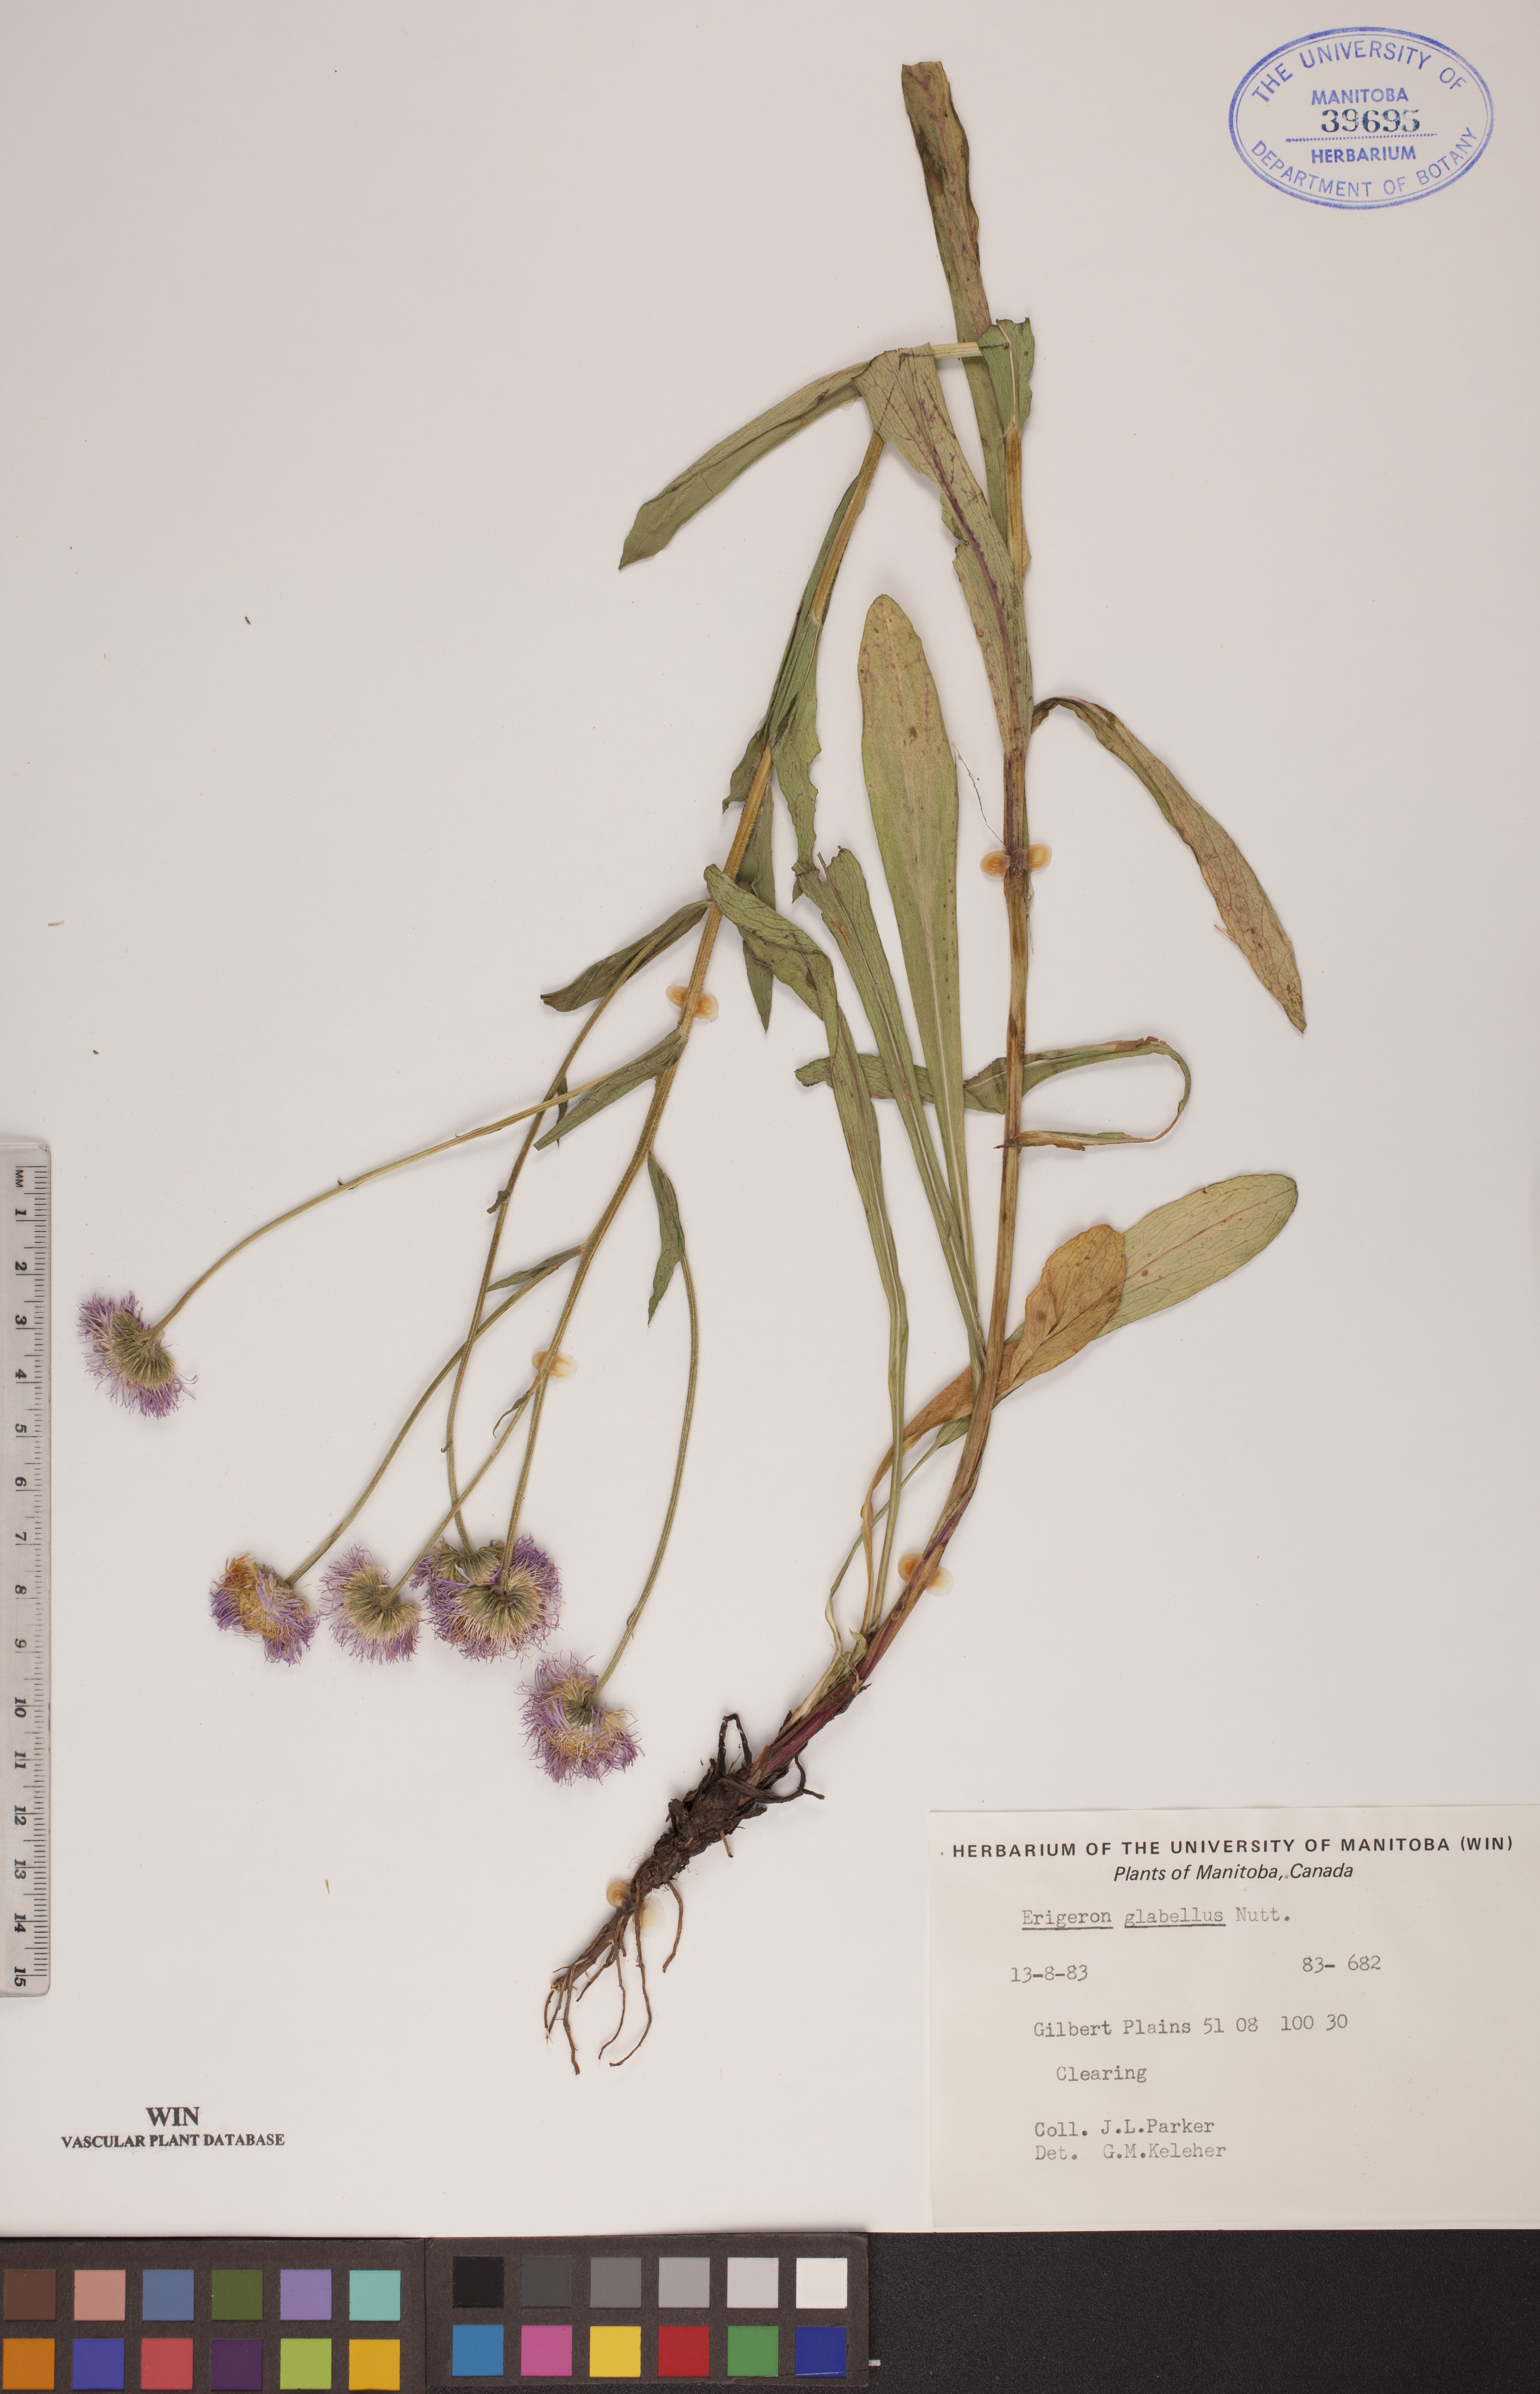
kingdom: Plantae
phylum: Tracheophyta
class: Magnoliopsida
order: Asterales
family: Asteraceae
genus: Erigeron
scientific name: Erigeron glabellus
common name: Smooth fleabane
